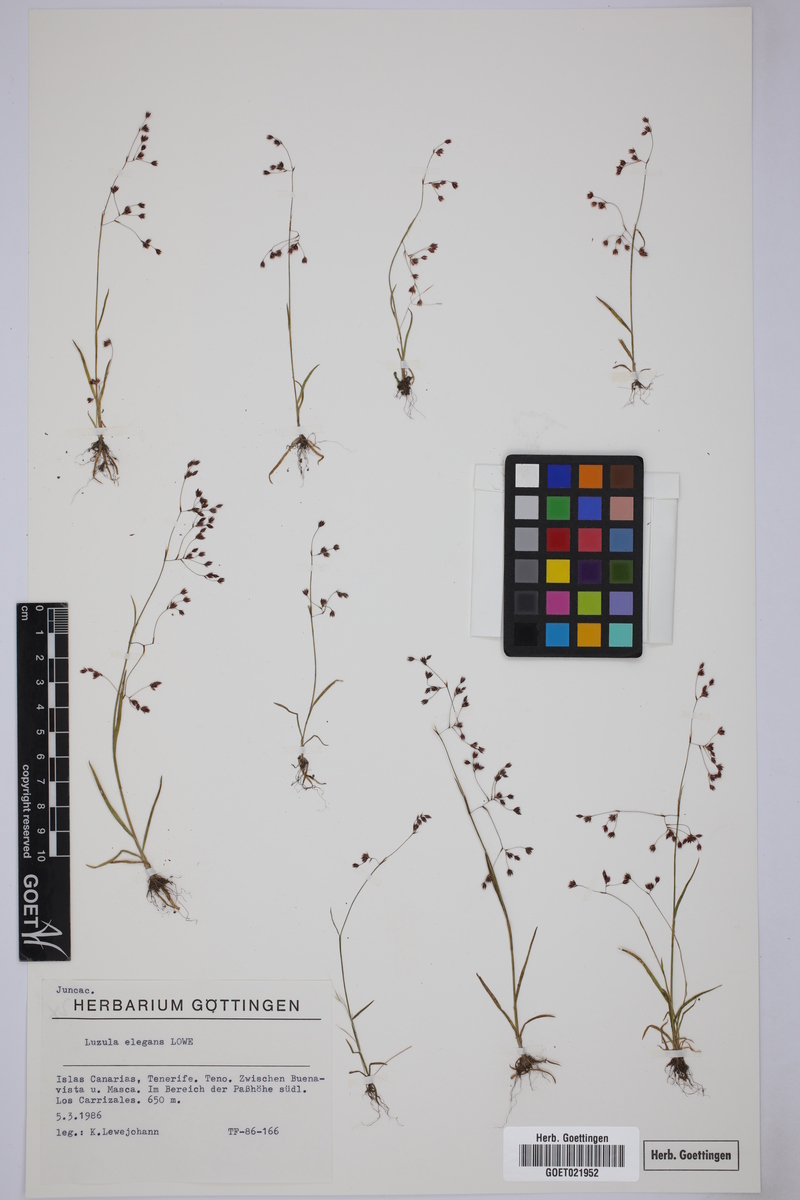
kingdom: Plantae
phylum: Tracheophyta
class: Liliopsida
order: Poales
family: Juncaceae
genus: Luzula
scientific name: Luzula elegans
